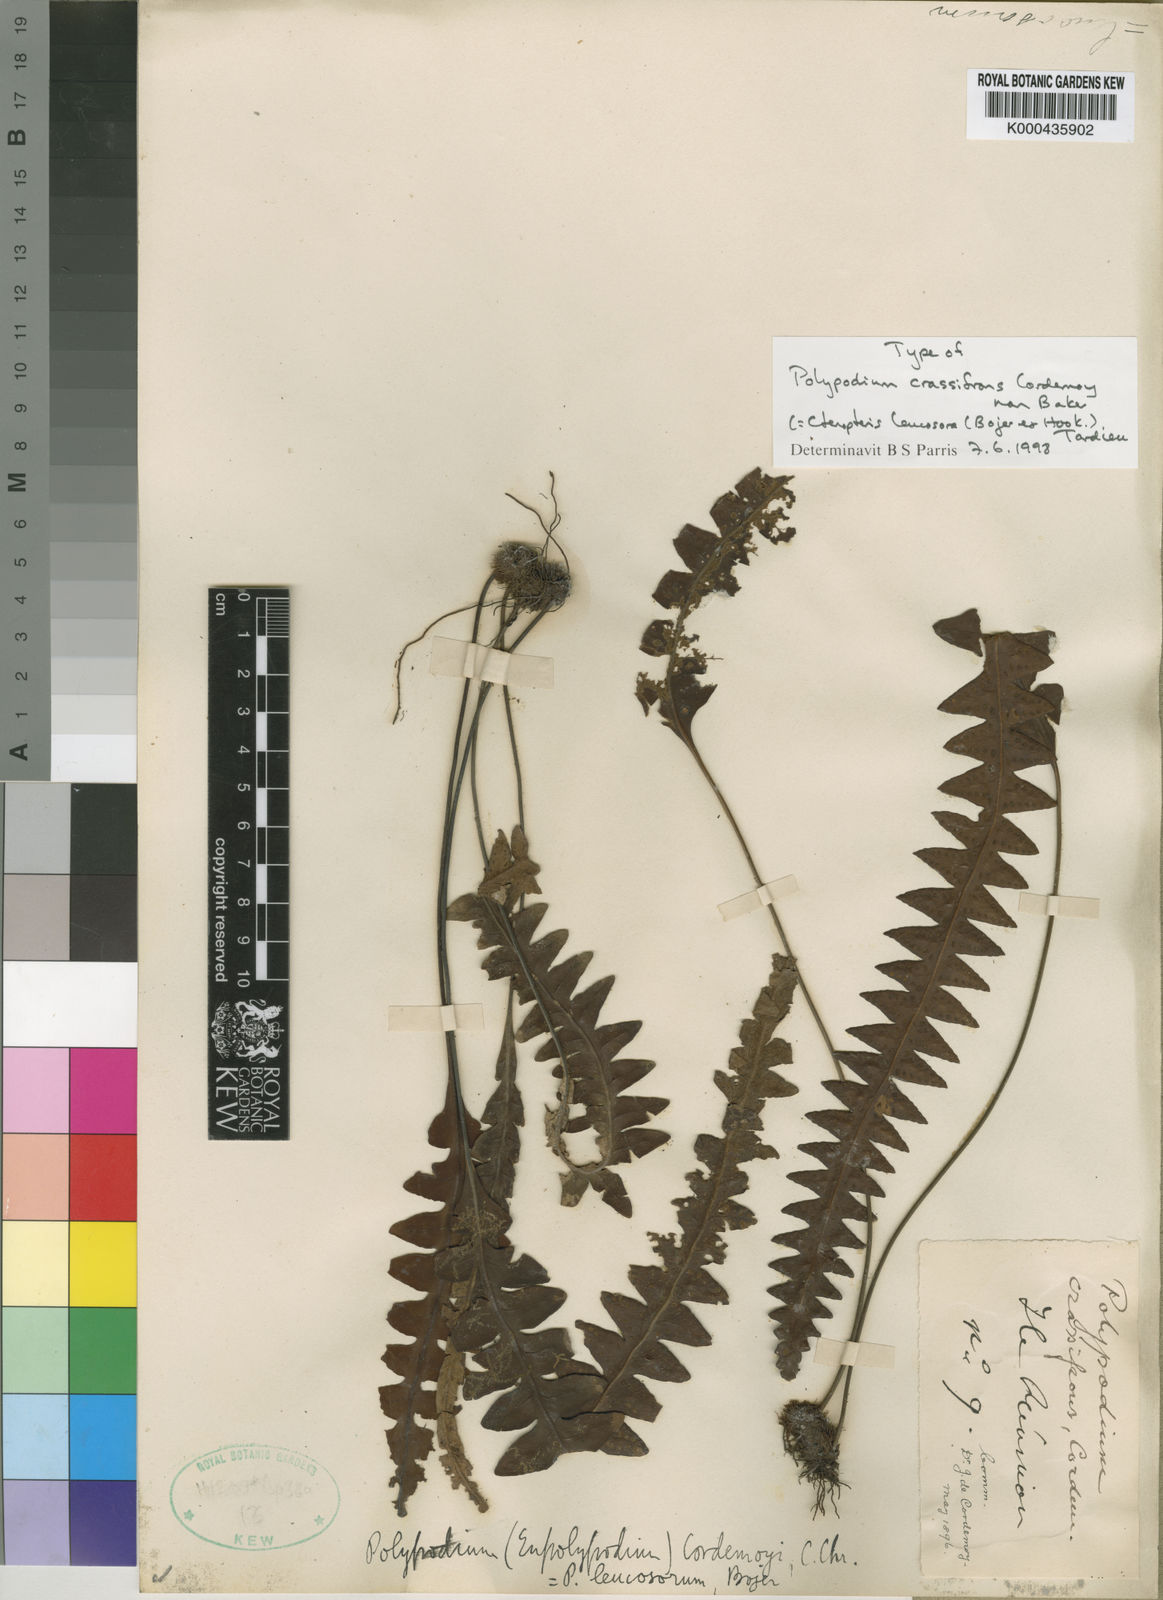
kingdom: Plantae
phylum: Tracheophyta
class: Polypodiopsida
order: Polypodiales
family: Polypodiaceae
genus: Ceradenia
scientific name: Ceradenia leucosora
